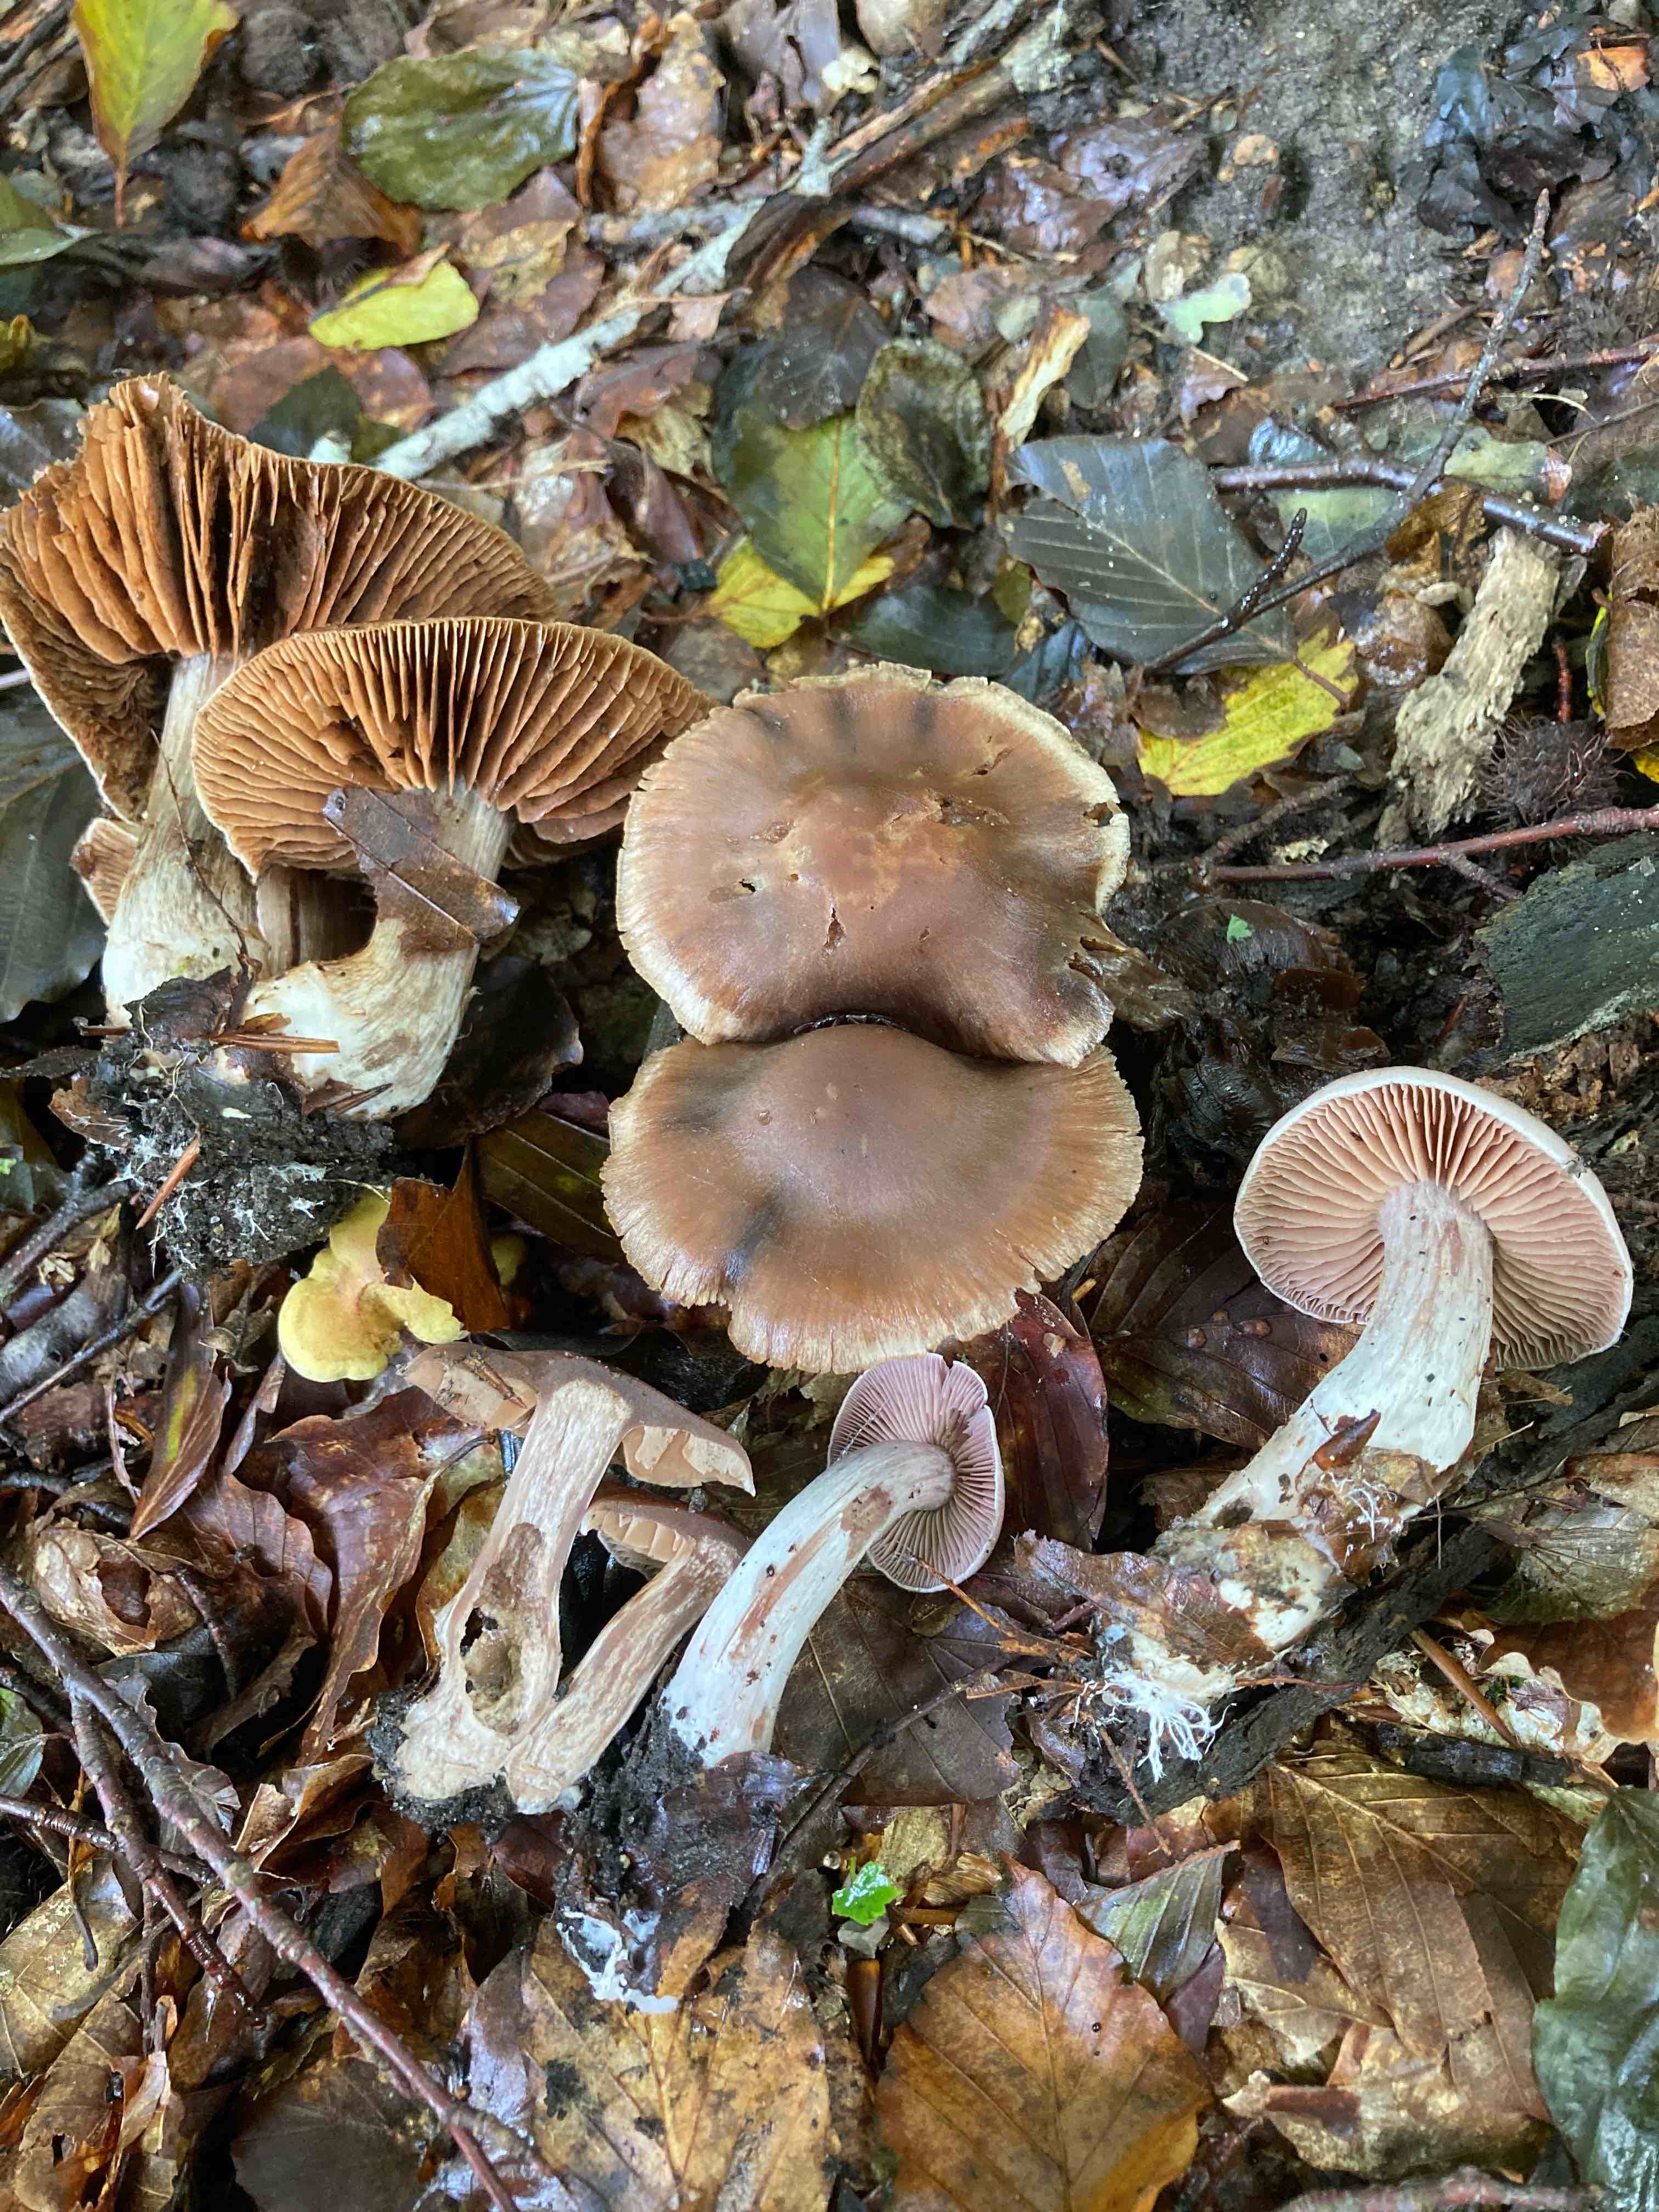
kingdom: Fungi
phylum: Basidiomycota
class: Agaricomycetes
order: Agaricales
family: Cortinariaceae
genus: Cortinarius
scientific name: Cortinarius
